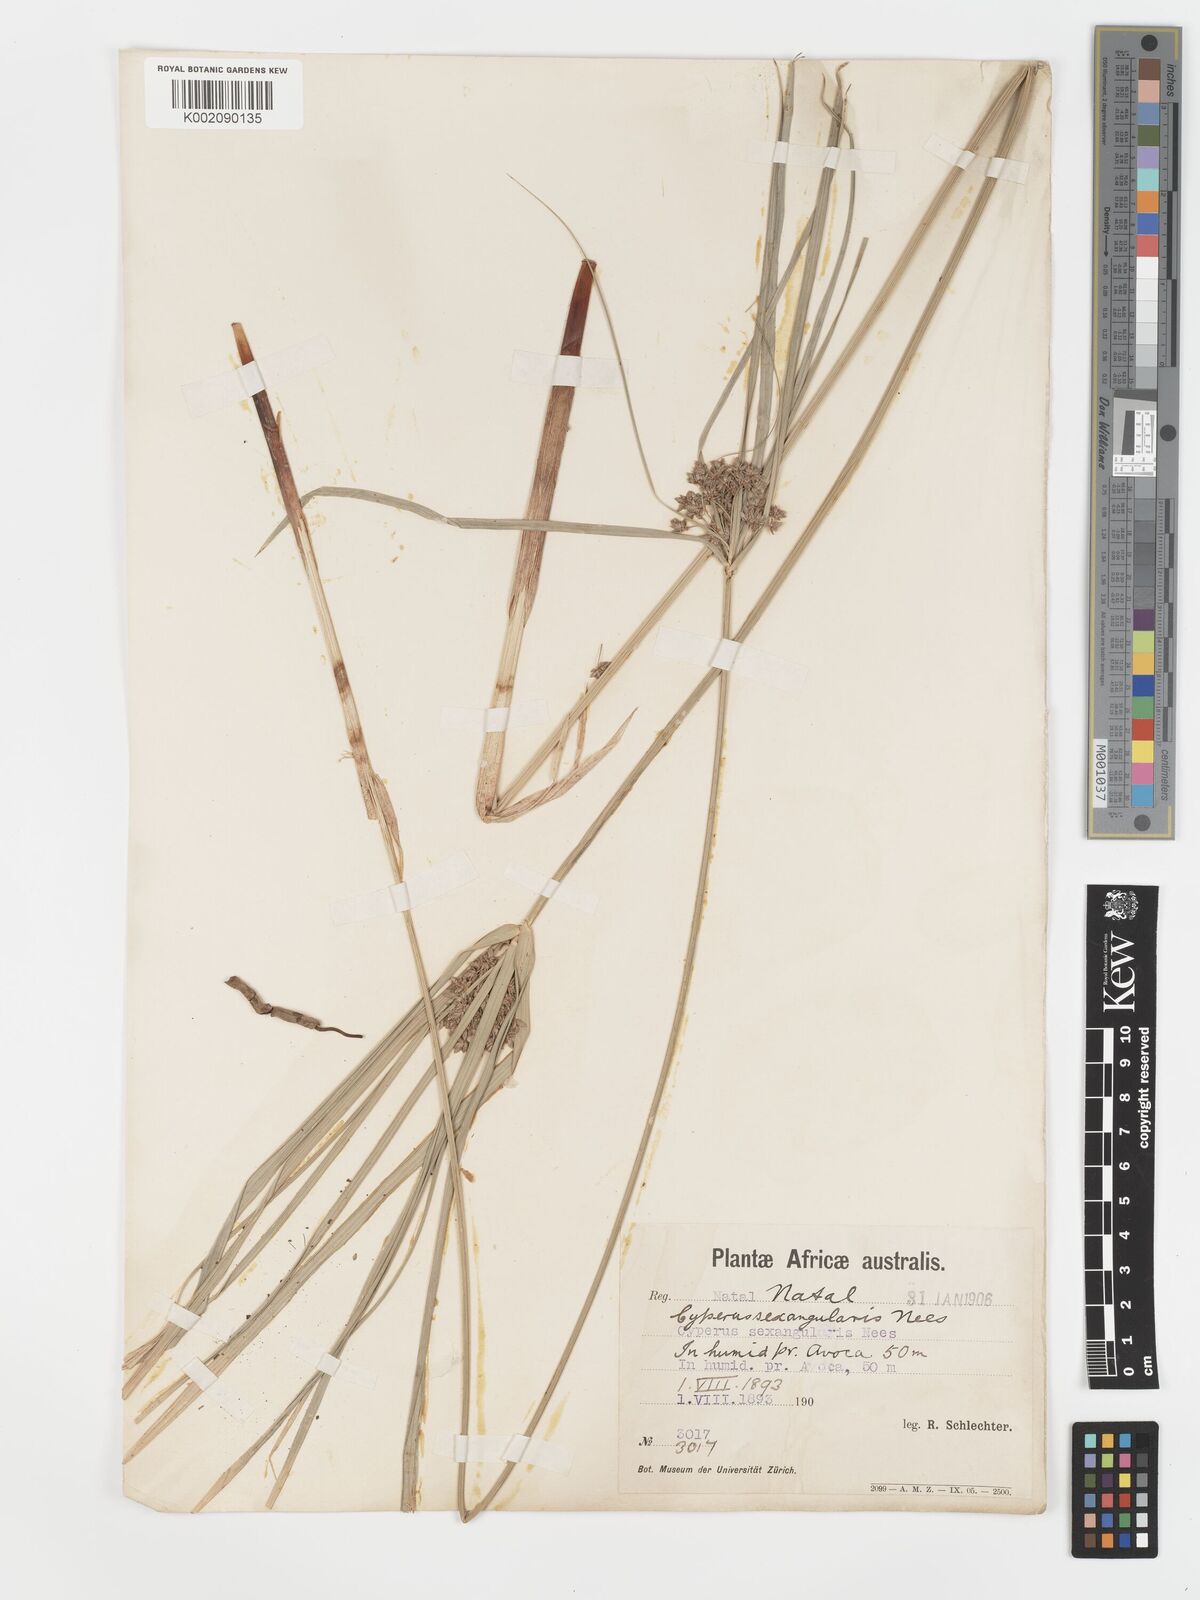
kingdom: Plantae
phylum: Tracheophyta
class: Liliopsida
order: Poales
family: Cyperaceae
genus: Cyperus
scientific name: Cyperus sexangularis
